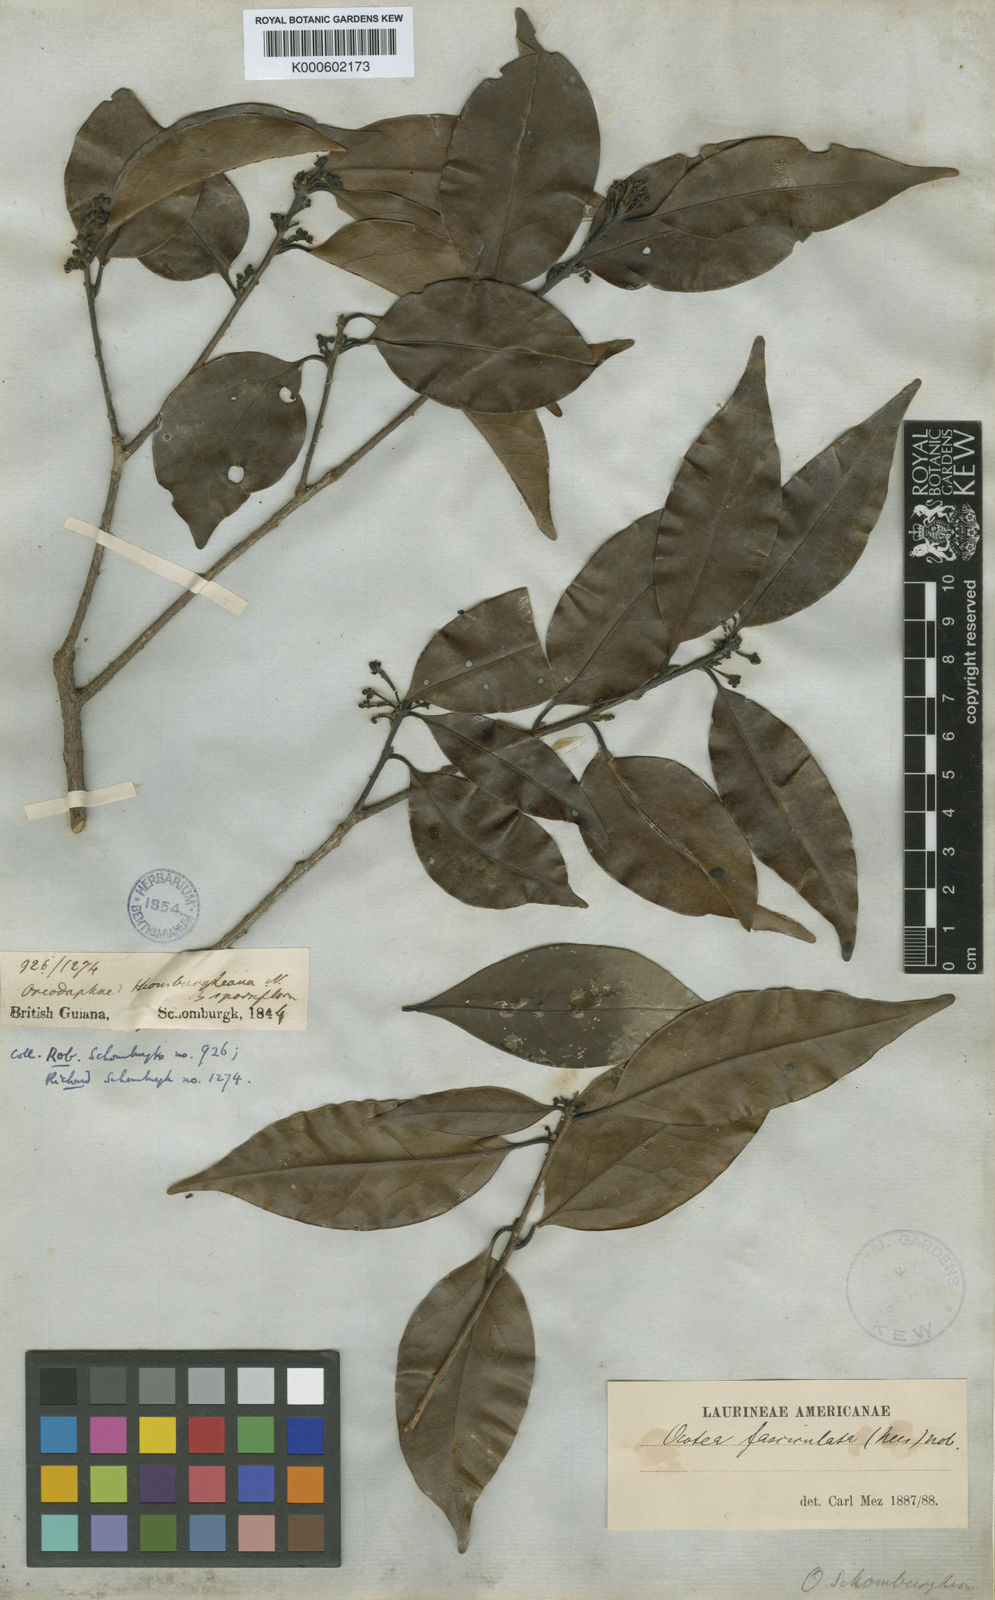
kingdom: Plantae
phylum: Tracheophyta
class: Magnoliopsida
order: Laurales
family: Lauraceae
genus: Mespilodaphne
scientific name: Mespilodaphne fasciculata
